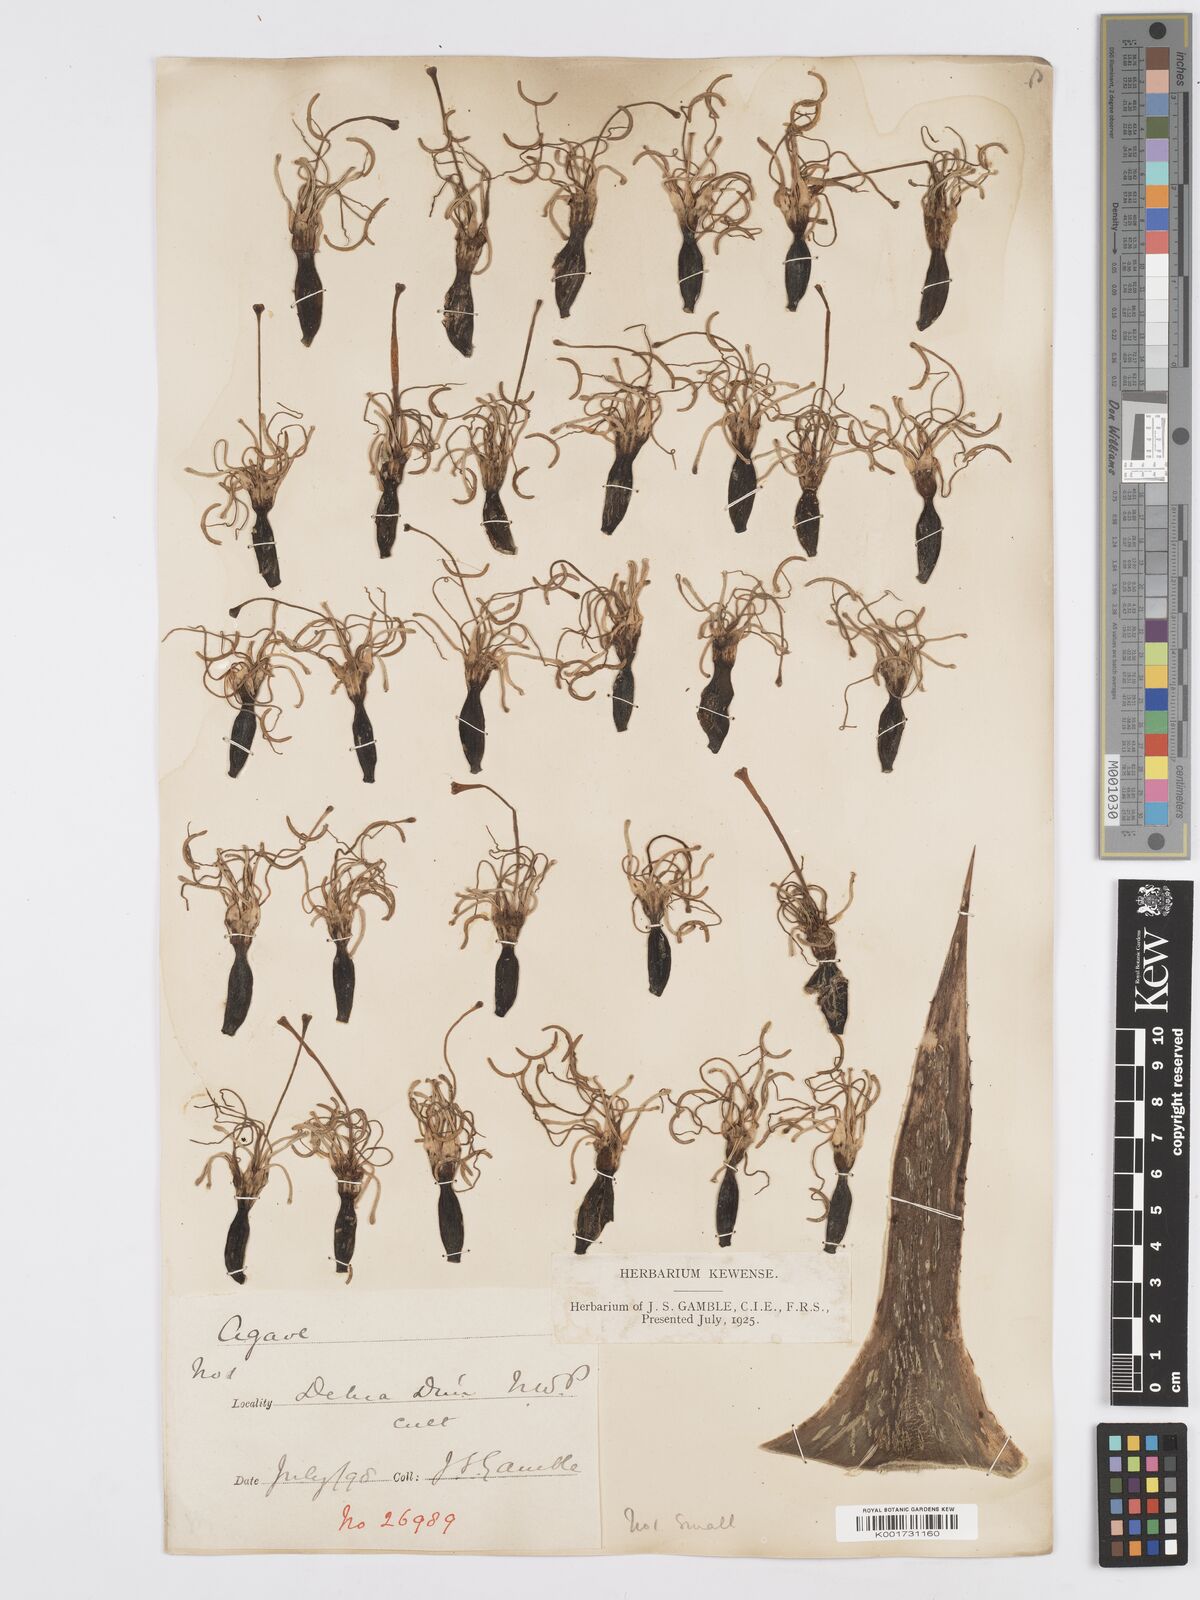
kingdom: Plantae
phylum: Tracheophyta
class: Liliopsida
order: Asparagales
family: Asparagaceae
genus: Agave
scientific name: Agave americana
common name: Centuryplant
